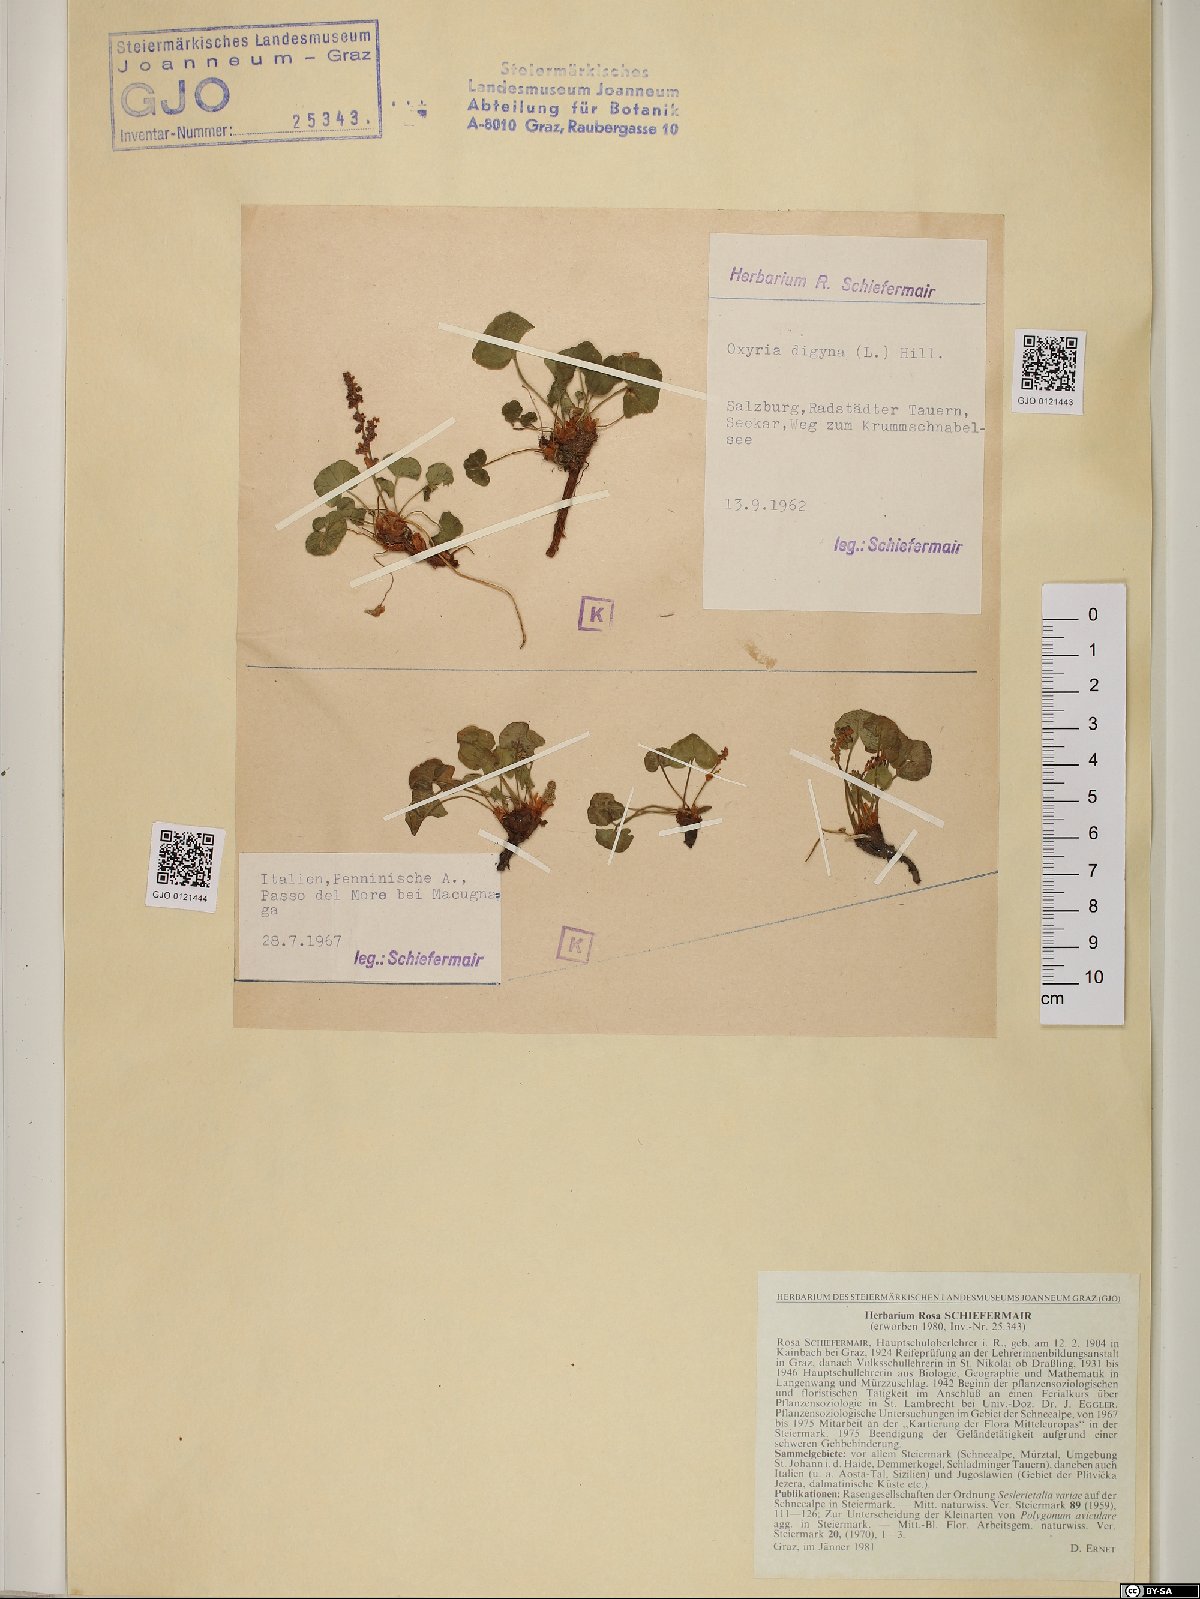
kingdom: Plantae
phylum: Tracheophyta
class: Magnoliopsida
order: Caryophyllales
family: Polygonaceae
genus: Oxyria
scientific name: Oxyria digyna
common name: Alpine mountain-sorrel
